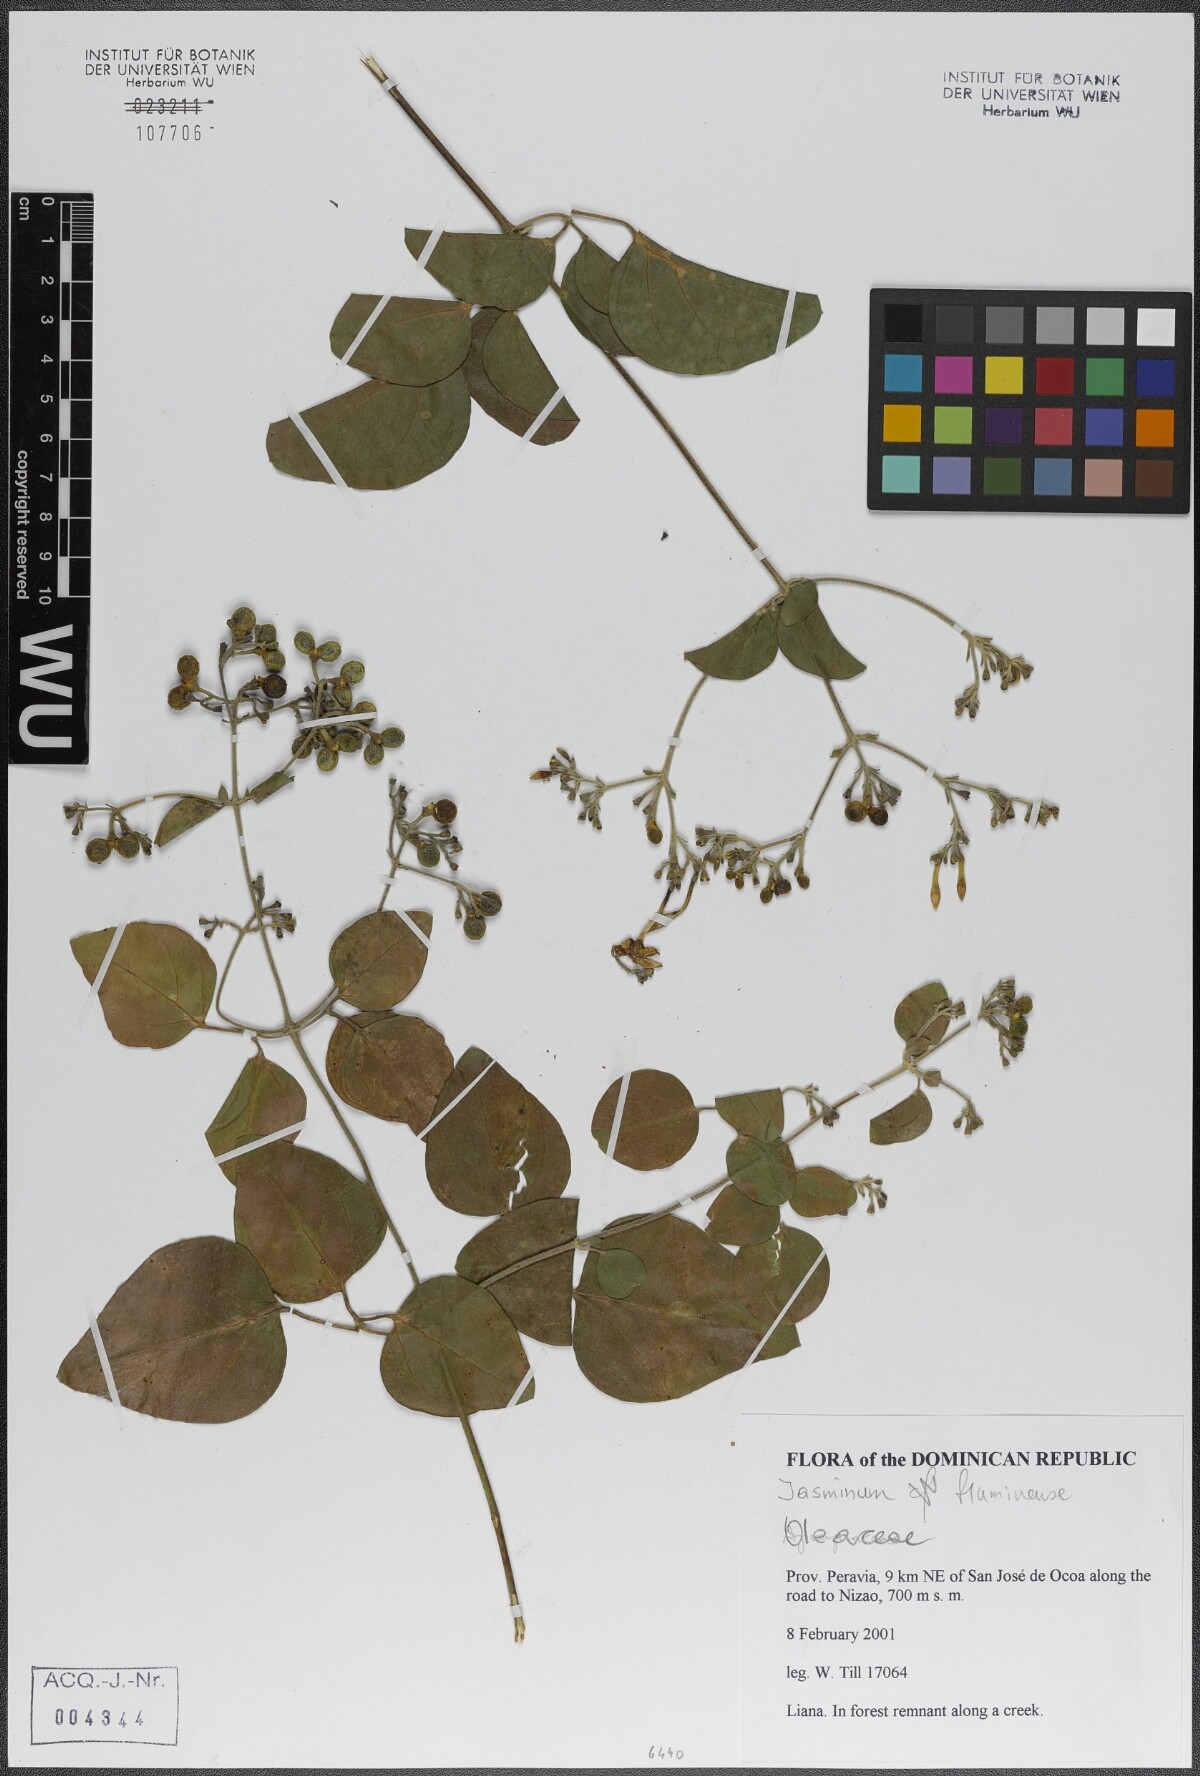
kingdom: Plantae
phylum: Tracheophyta
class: Magnoliopsida
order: Lamiales
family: Oleaceae
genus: Jasminum
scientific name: Jasminum fluminense
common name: Brazilian jasmine
